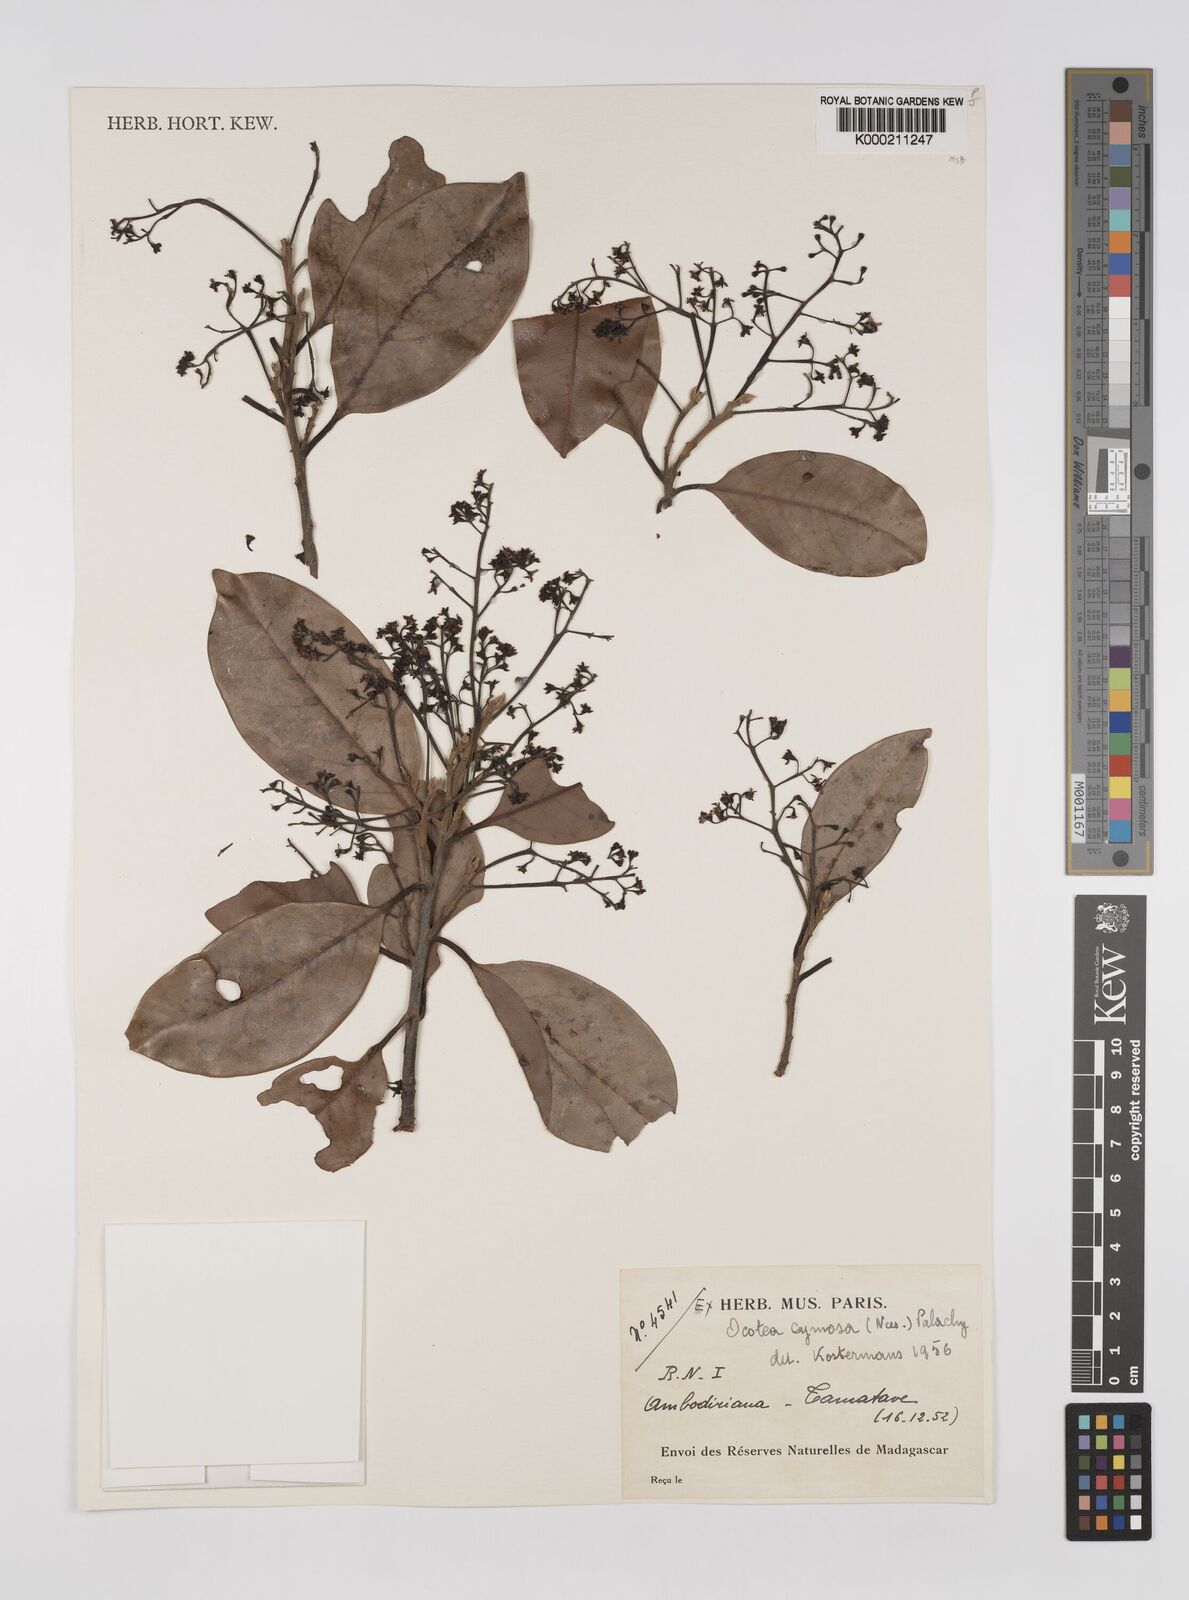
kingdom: Plantae
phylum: Tracheophyta
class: Magnoliopsida
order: Laurales
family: Lauraceae
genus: Mespilodaphne
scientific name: Mespilodaphne cymosa
